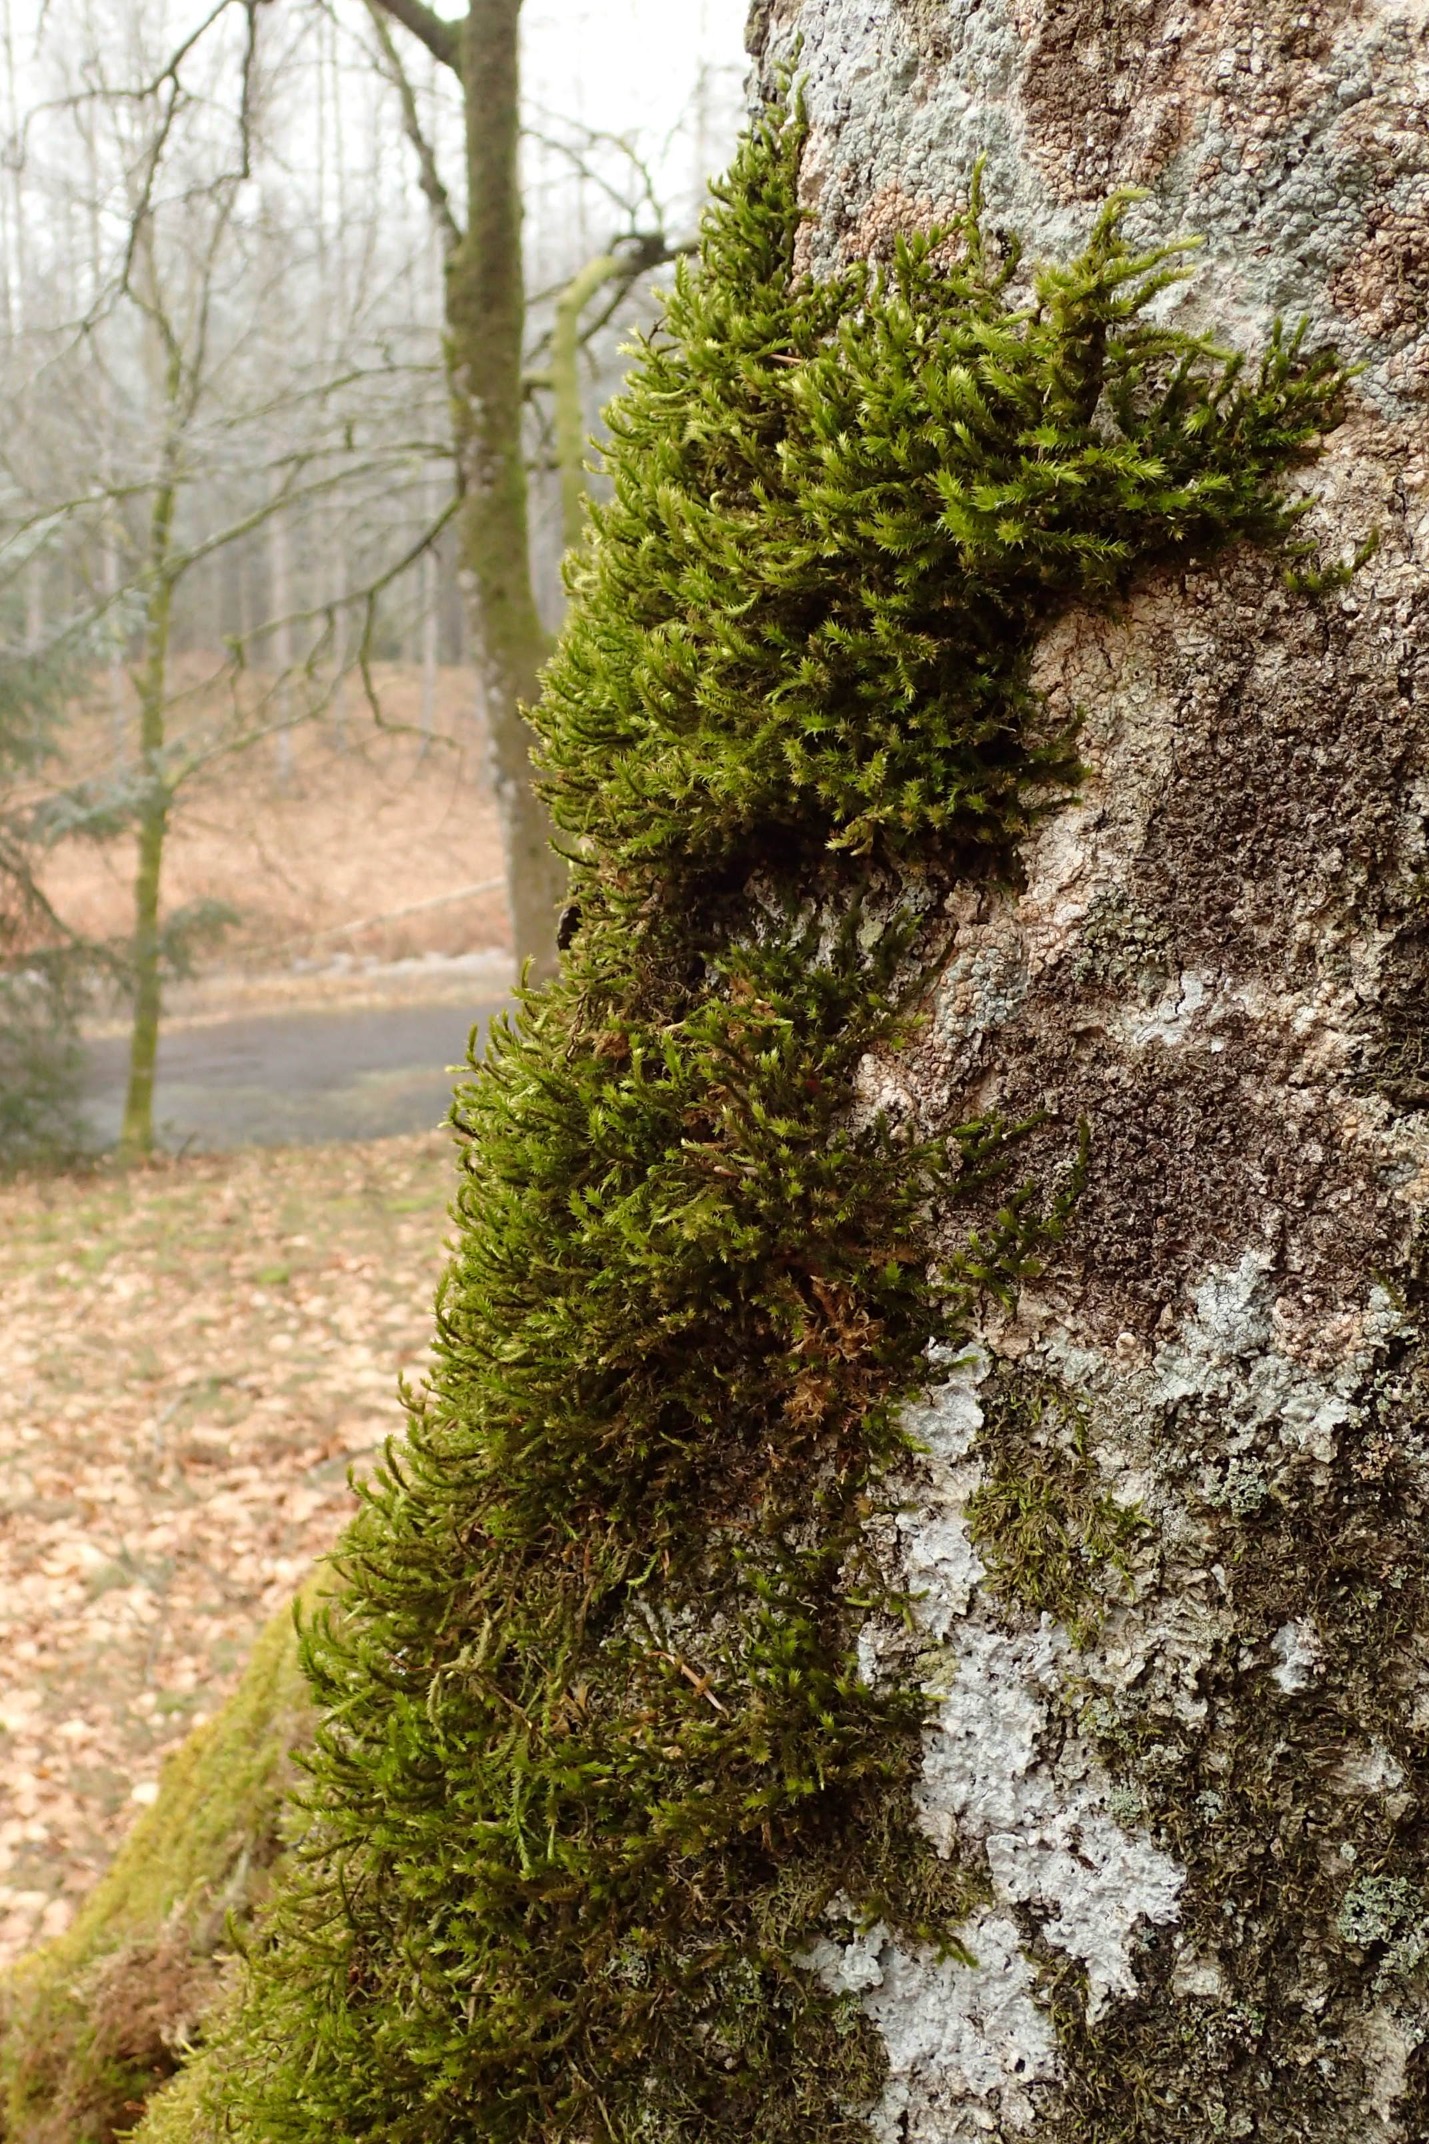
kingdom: Plantae
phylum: Bryophyta
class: Bryopsida
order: Hypnales
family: Antitrichiaceae
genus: Antitrichia
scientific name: Antitrichia curtipendula
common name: Åben krogtand
